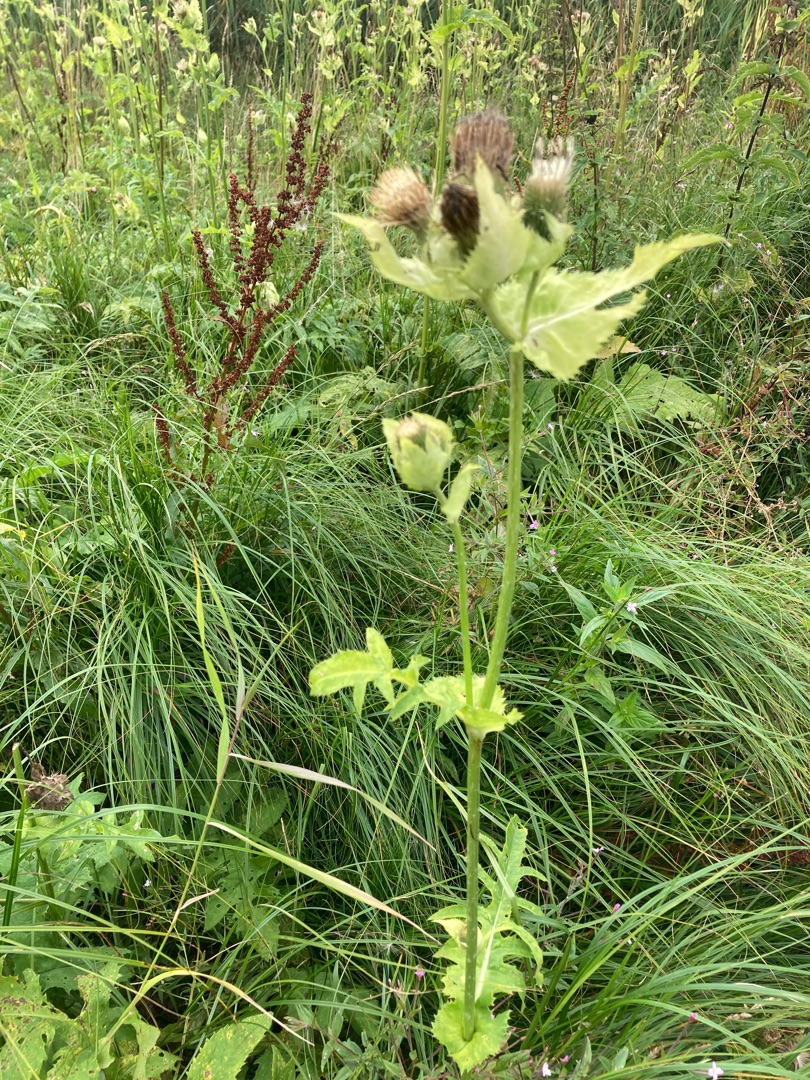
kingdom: Plantae
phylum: Tracheophyta
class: Magnoliopsida
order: Asterales
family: Asteraceae
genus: Cirsium
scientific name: Cirsium oleraceum
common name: Kål-tidsel
